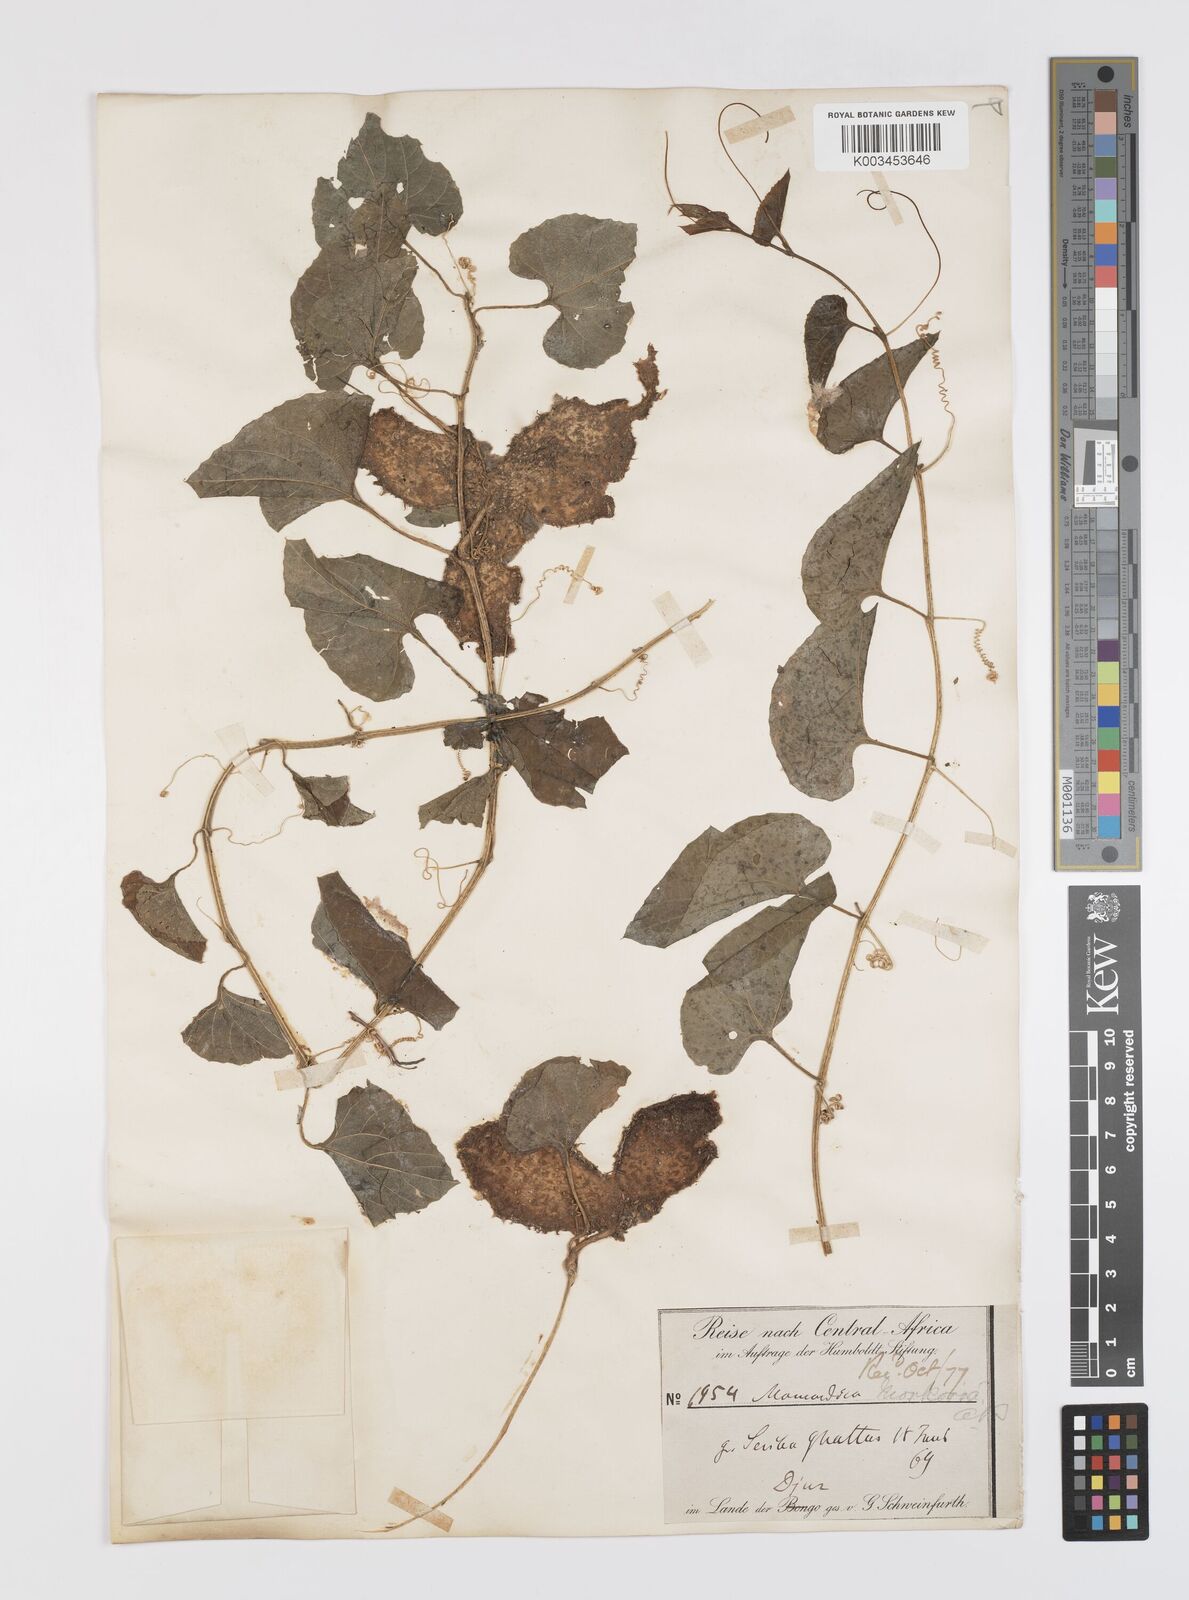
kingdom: Plantae
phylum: Tracheophyta
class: Magnoliopsida
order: Cucurbitales
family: Cucurbitaceae
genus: Momordica
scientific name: Momordica foetida
